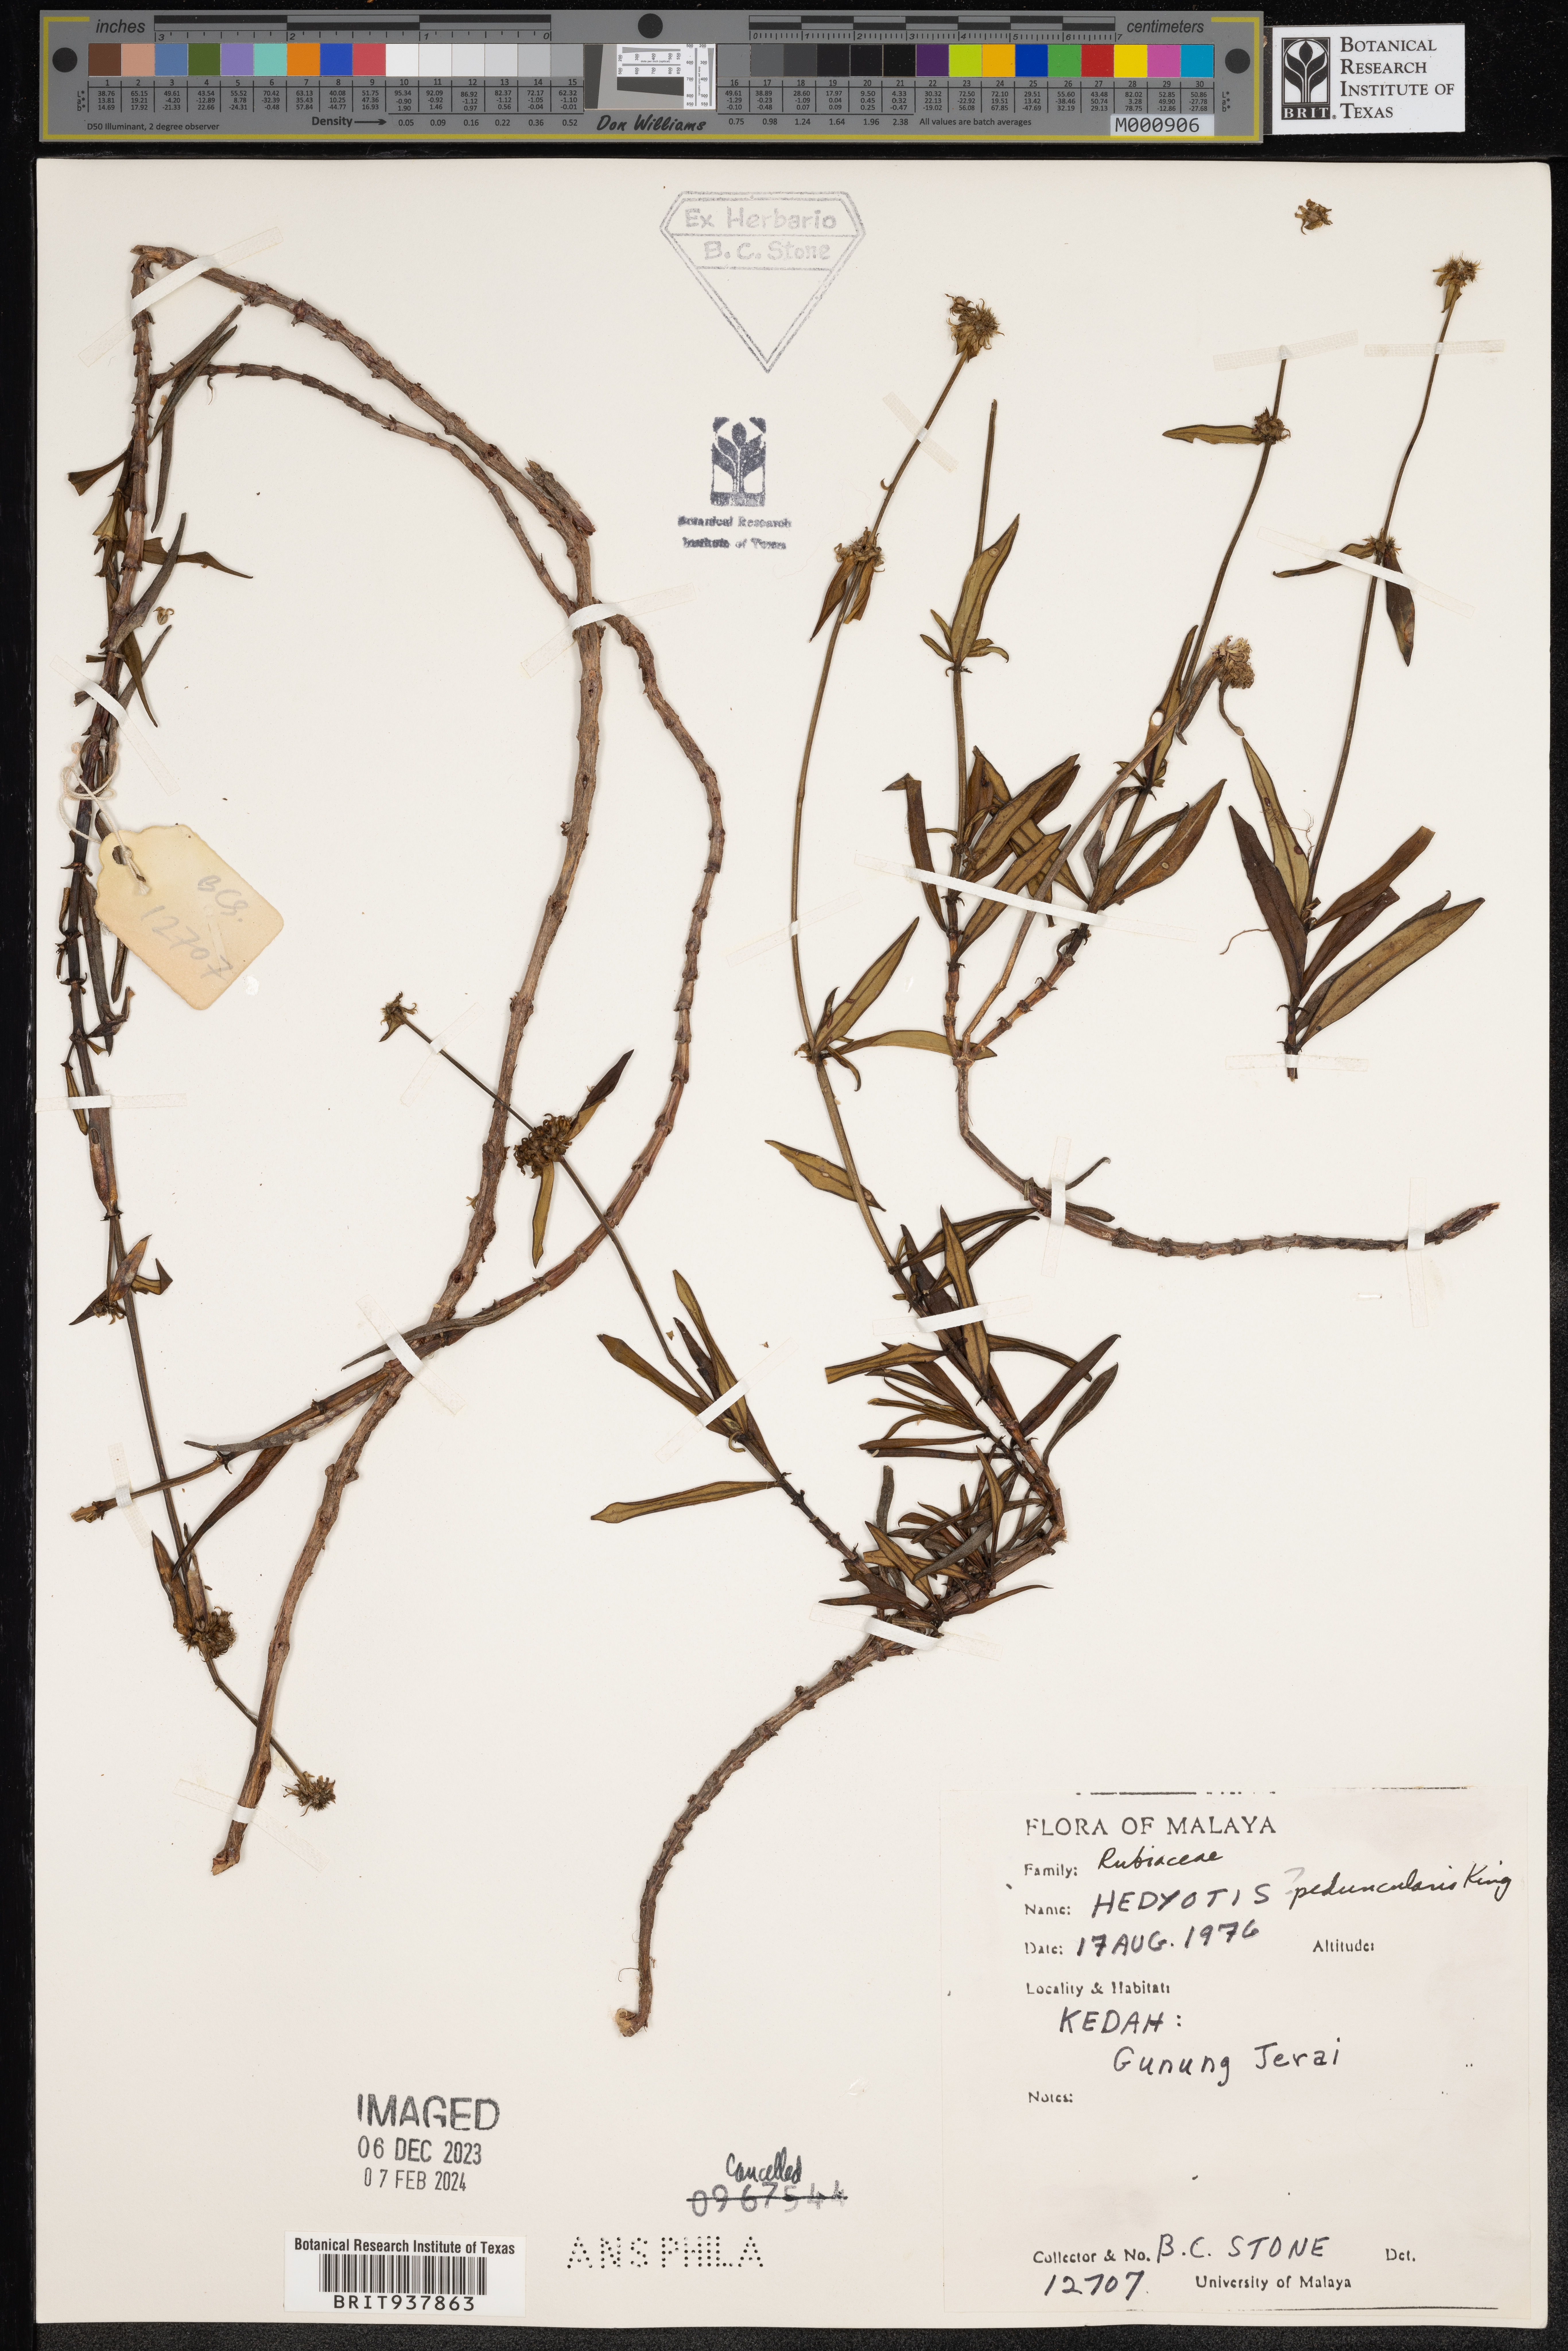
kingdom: Plantae
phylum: Tracheophyta
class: Magnoliopsida
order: Gentianales
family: Rubiaceae
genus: Hedyotis
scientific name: Hedyotis
